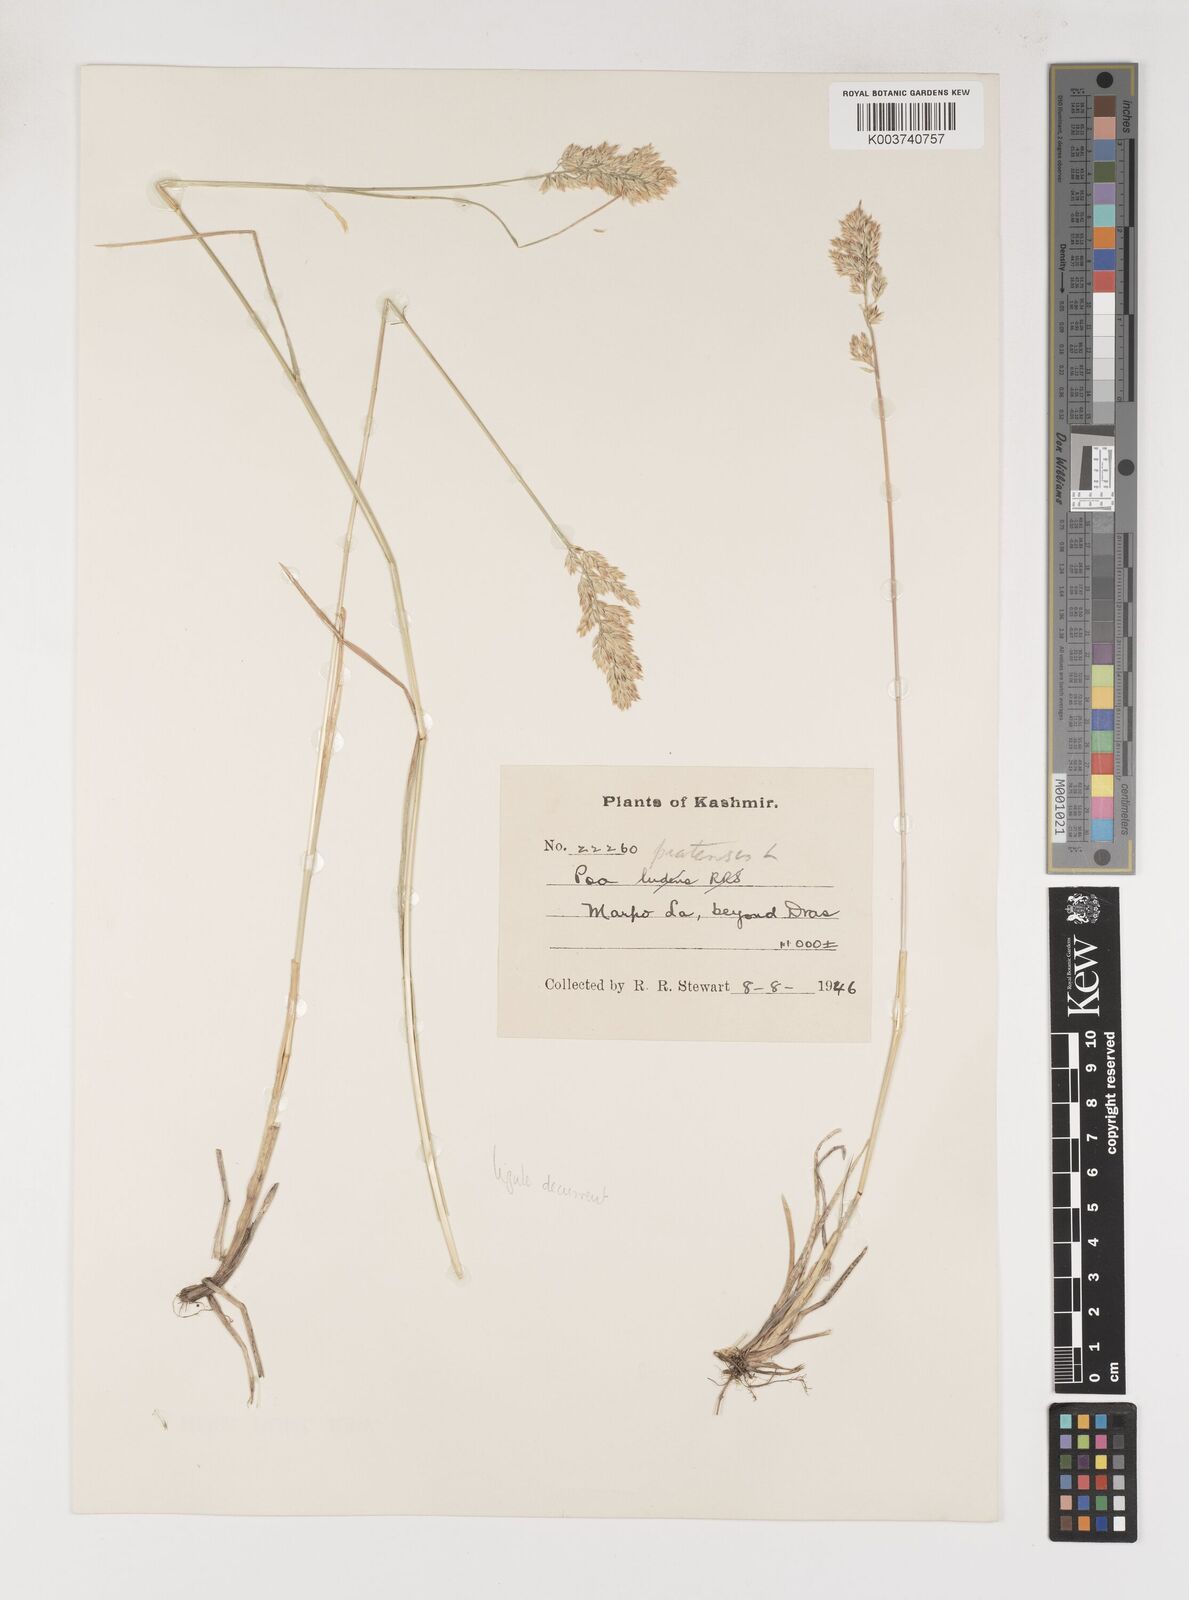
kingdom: Plantae
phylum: Tracheophyta
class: Liliopsida
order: Poales
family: Poaceae
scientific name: Poaceae
